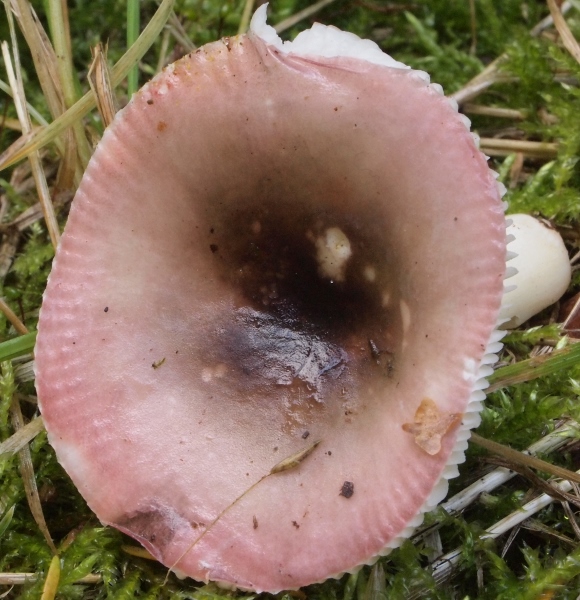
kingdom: Fungi
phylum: Basidiomycota
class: Agaricomycetes
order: Russulales
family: Russulaceae
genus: Russula
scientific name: Russula fragilis
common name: savbladet skørhat
